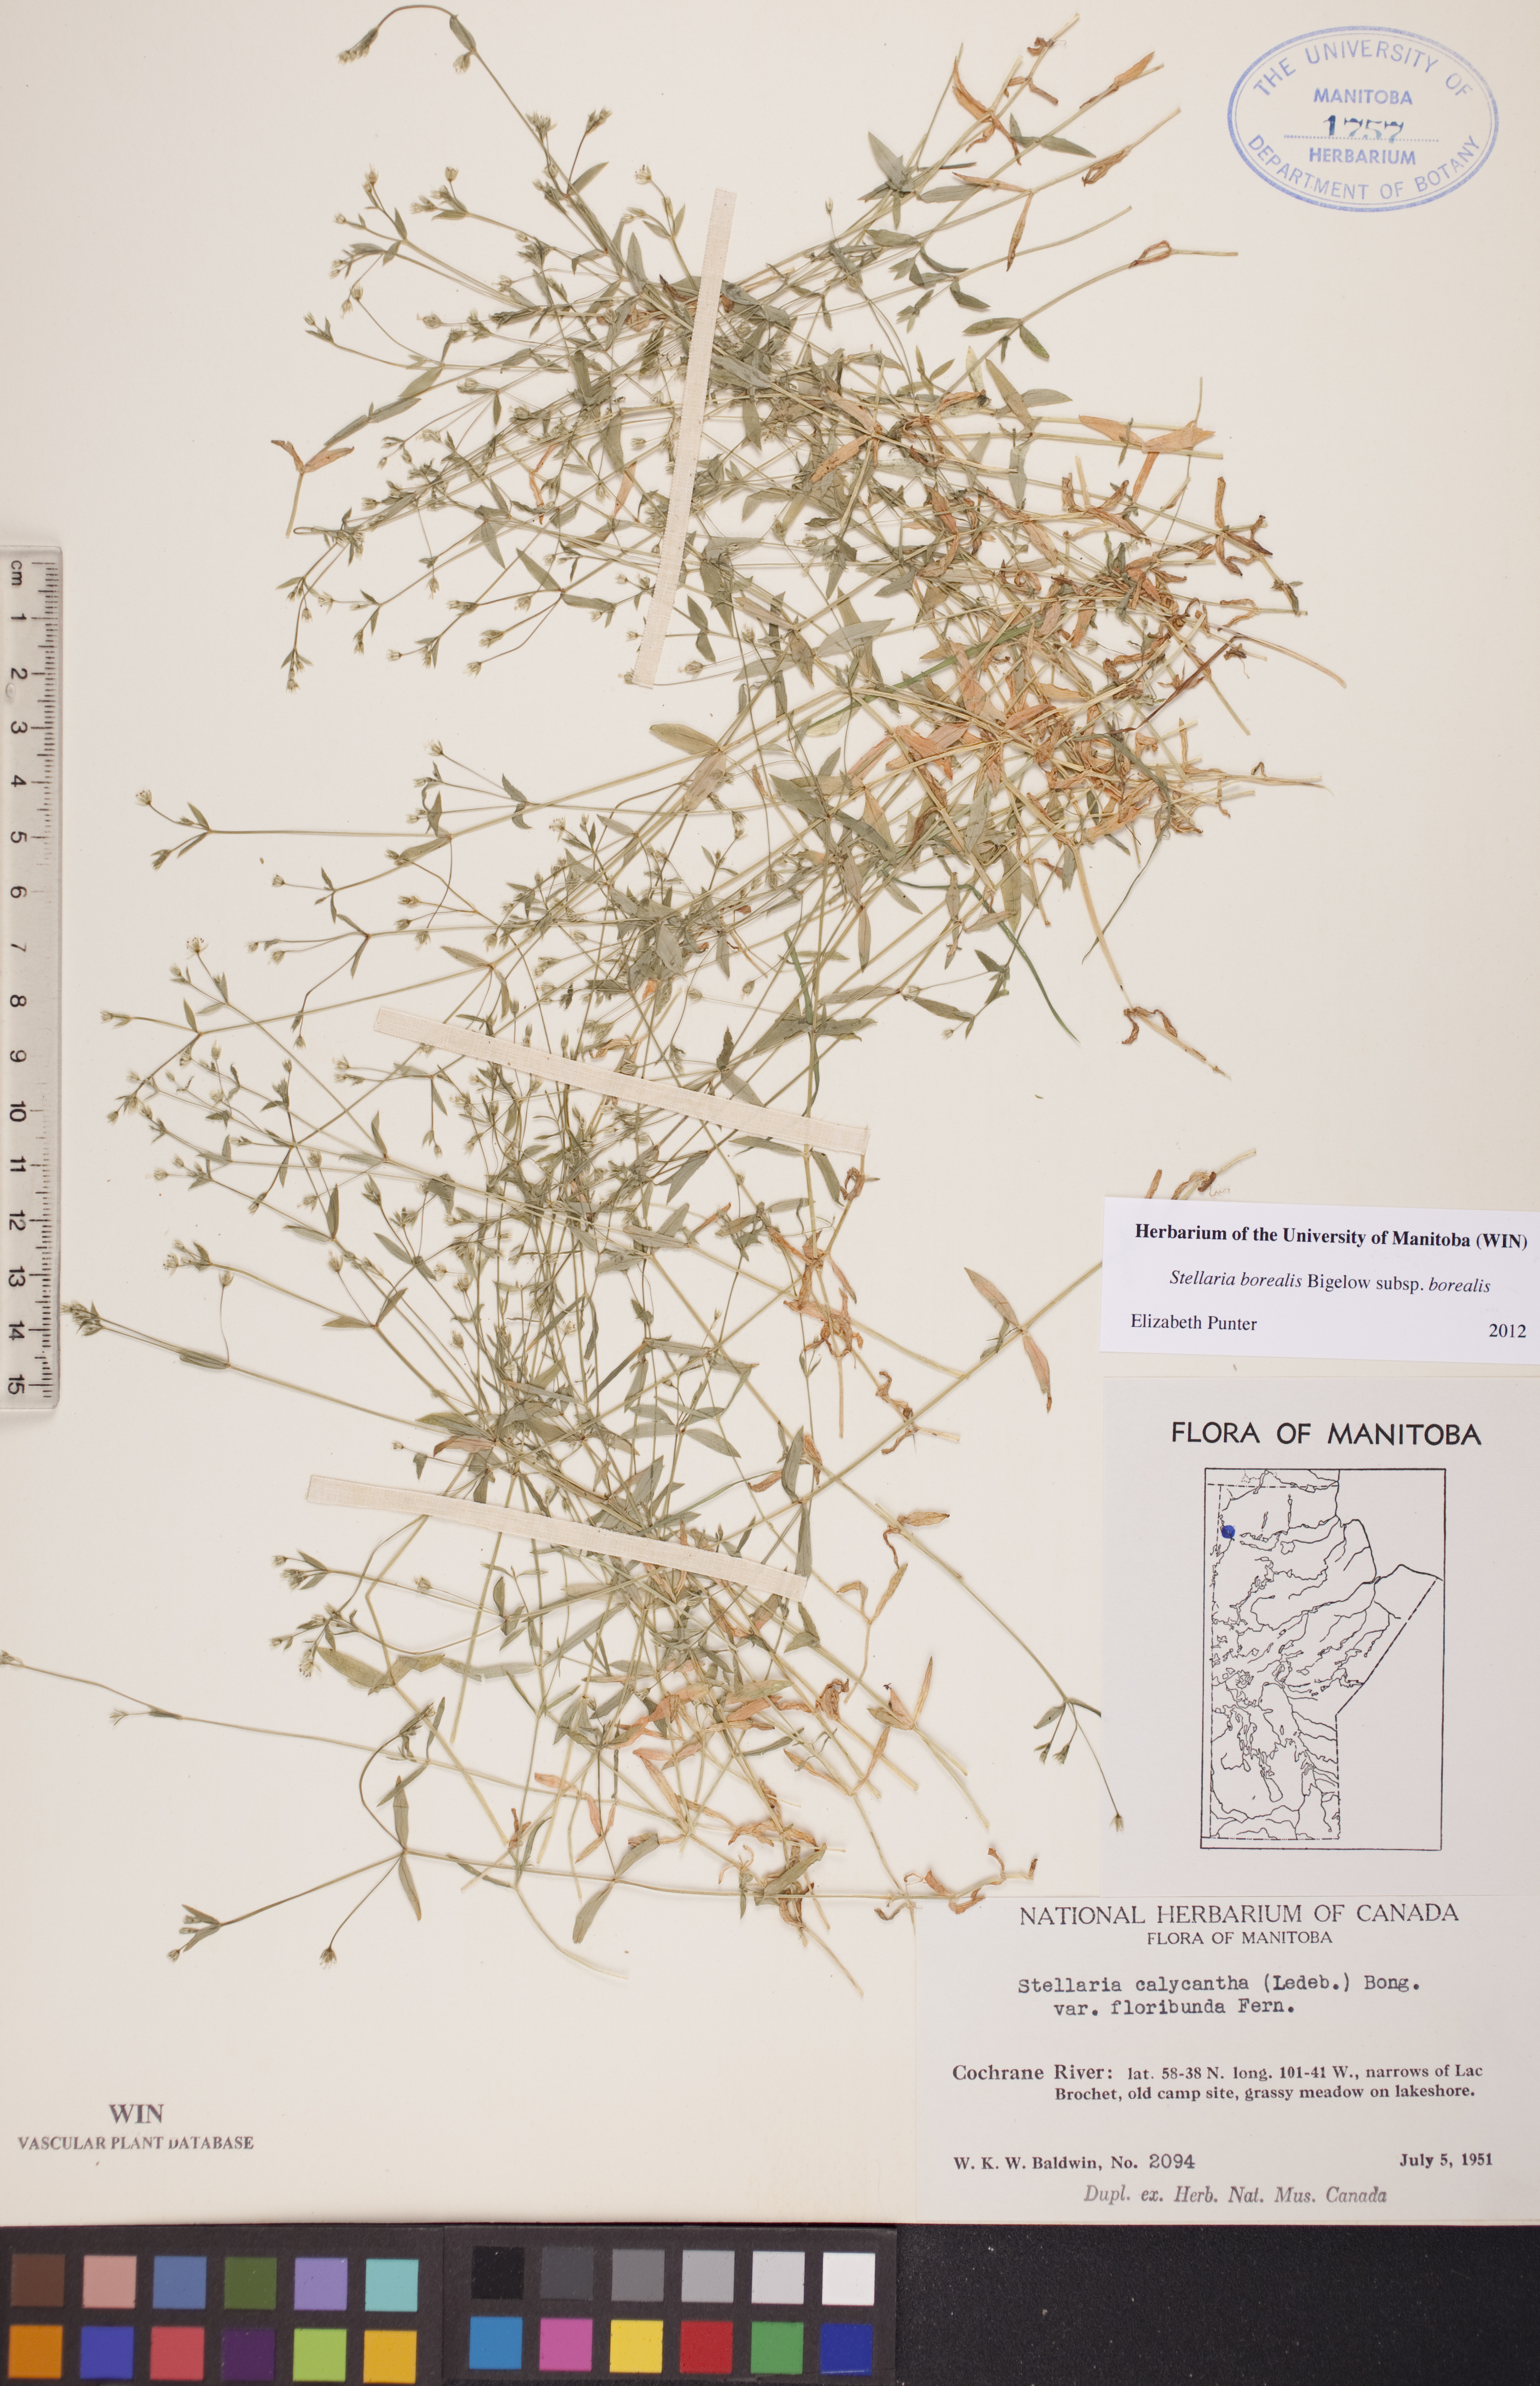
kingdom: Plantae
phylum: Tracheophyta
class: Magnoliopsida
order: Caryophyllales
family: Caryophyllaceae
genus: Stellaria
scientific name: Stellaria borealis
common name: Boreal starwort
